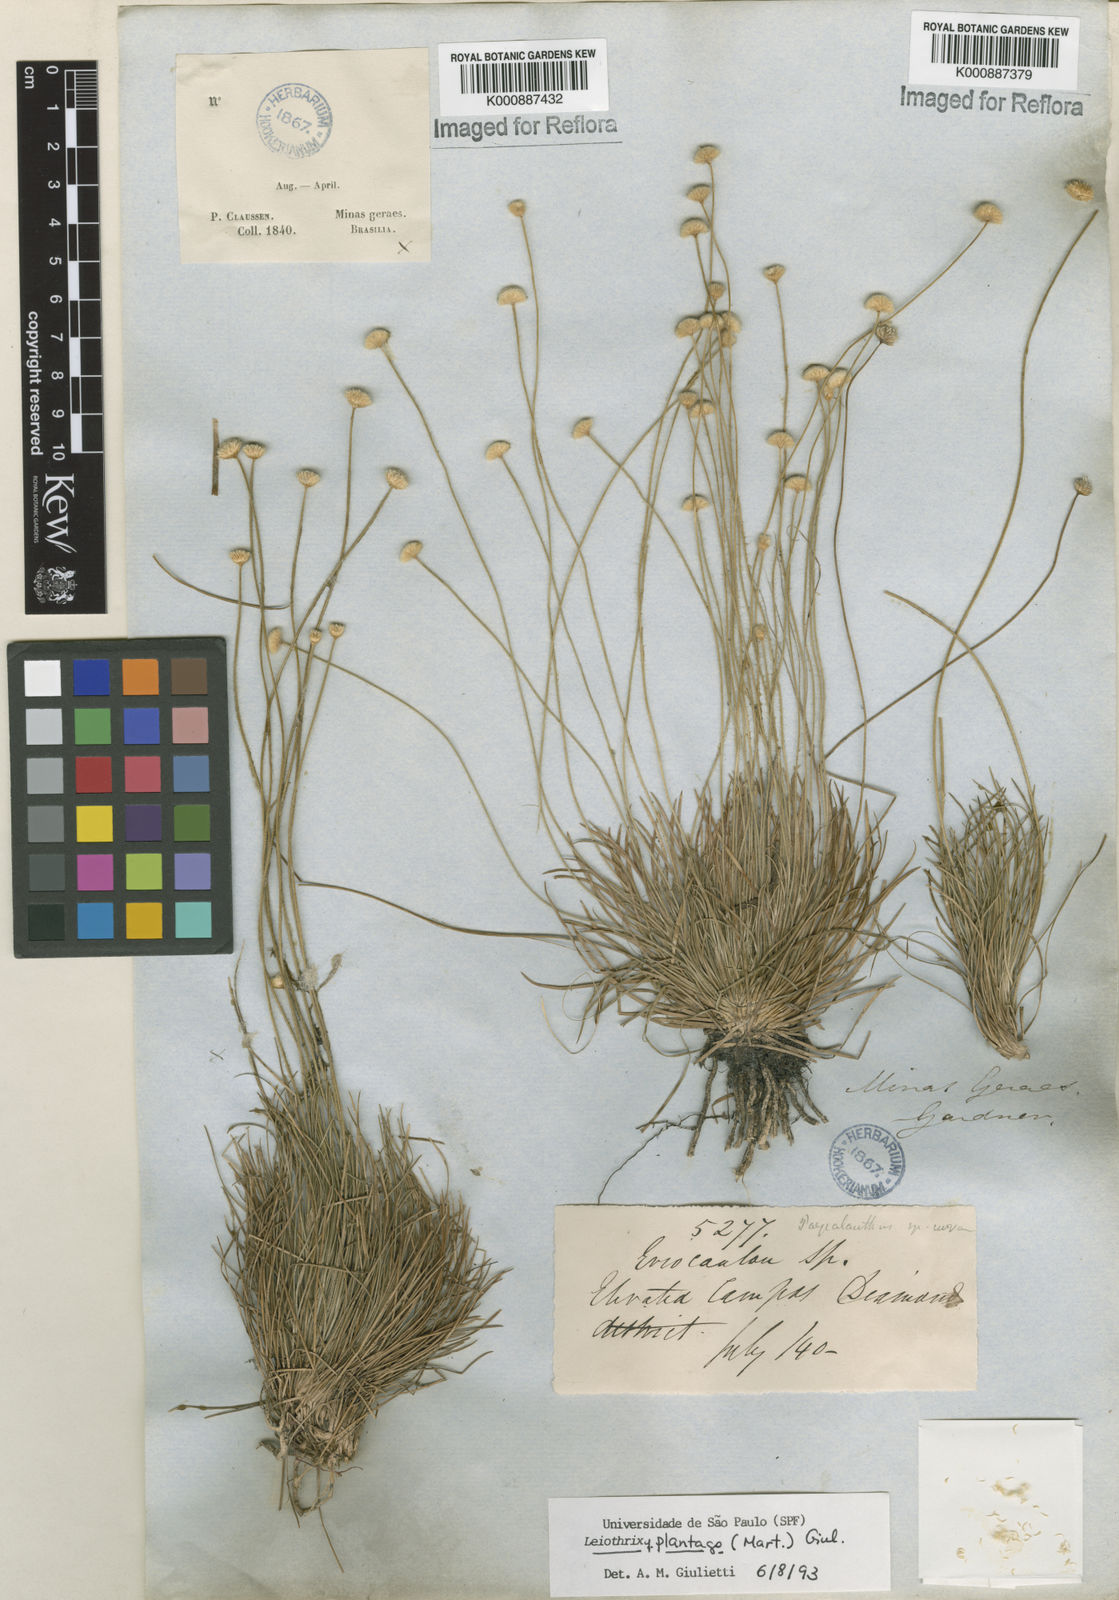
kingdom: Plantae
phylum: Tracheophyta
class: Liliopsida
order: Poales
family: Eriocaulaceae
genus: Leiothrix
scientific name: Leiothrix
